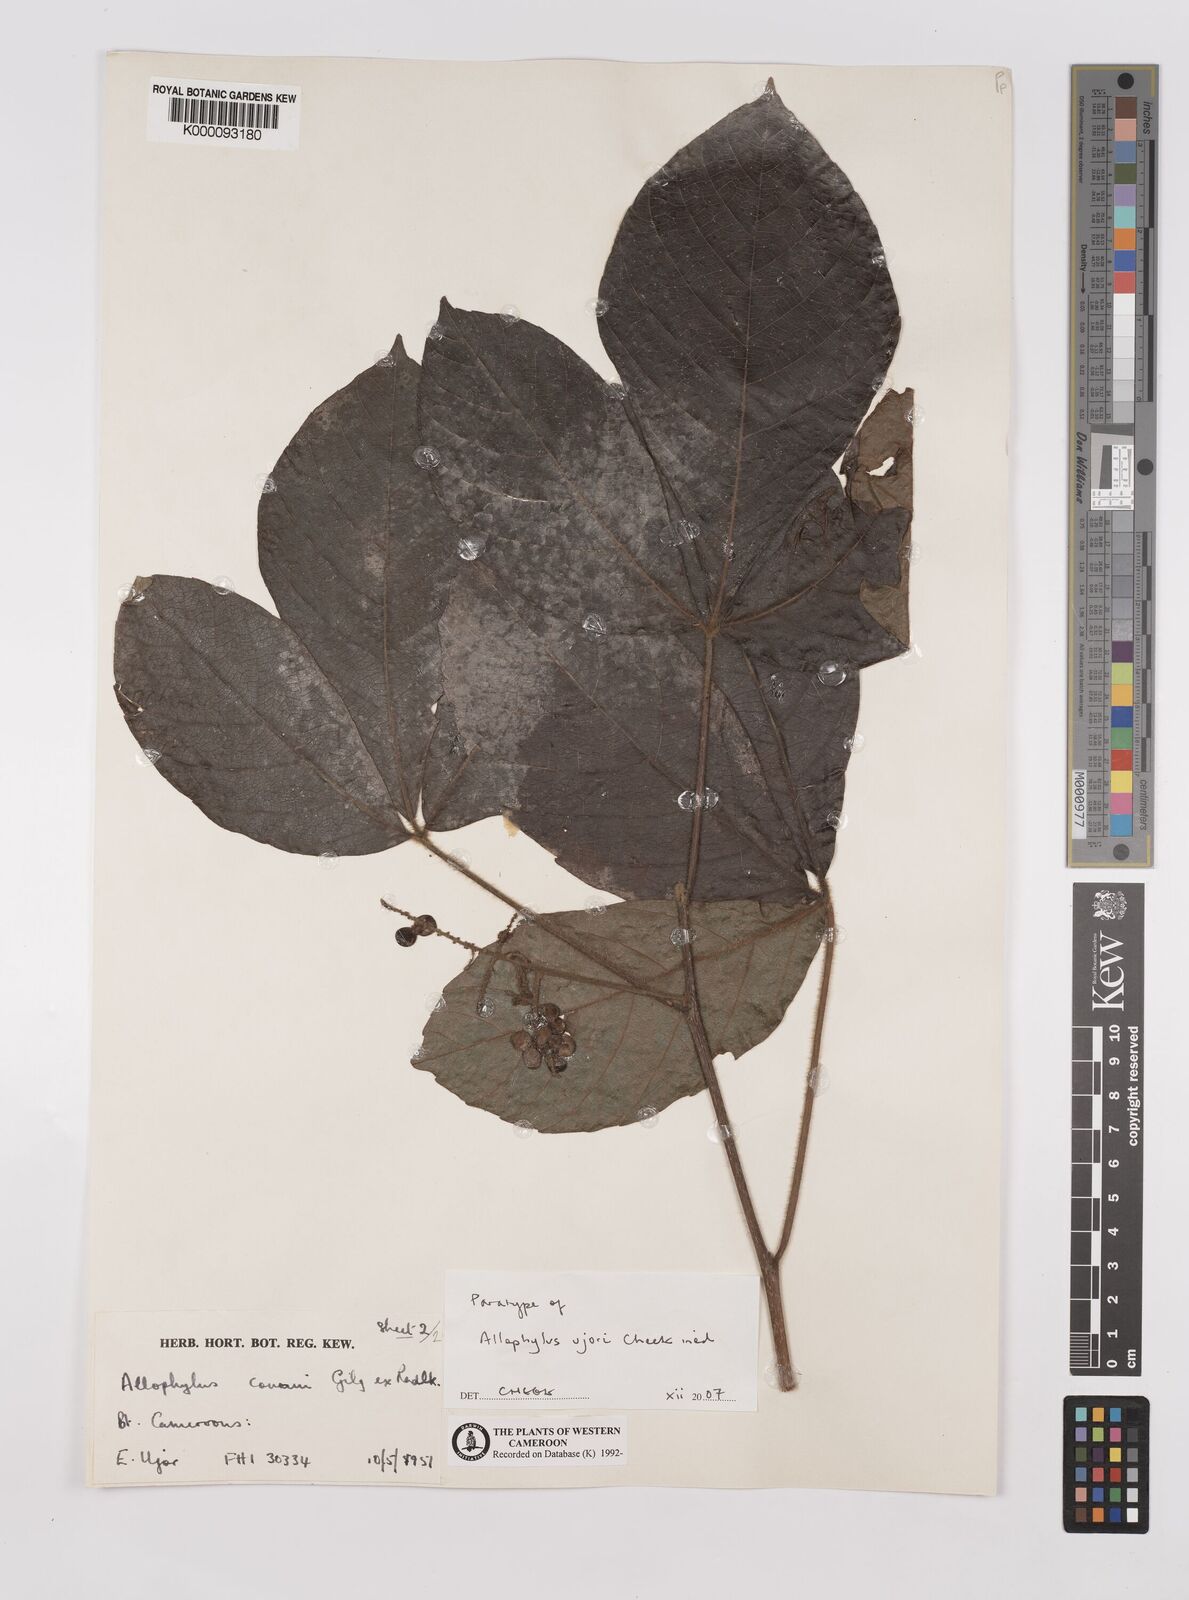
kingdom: Plantae
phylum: Tracheophyta
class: Magnoliopsida
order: Sapindales
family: Sapindaceae
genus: Allophylus
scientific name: Allophylus ujori
